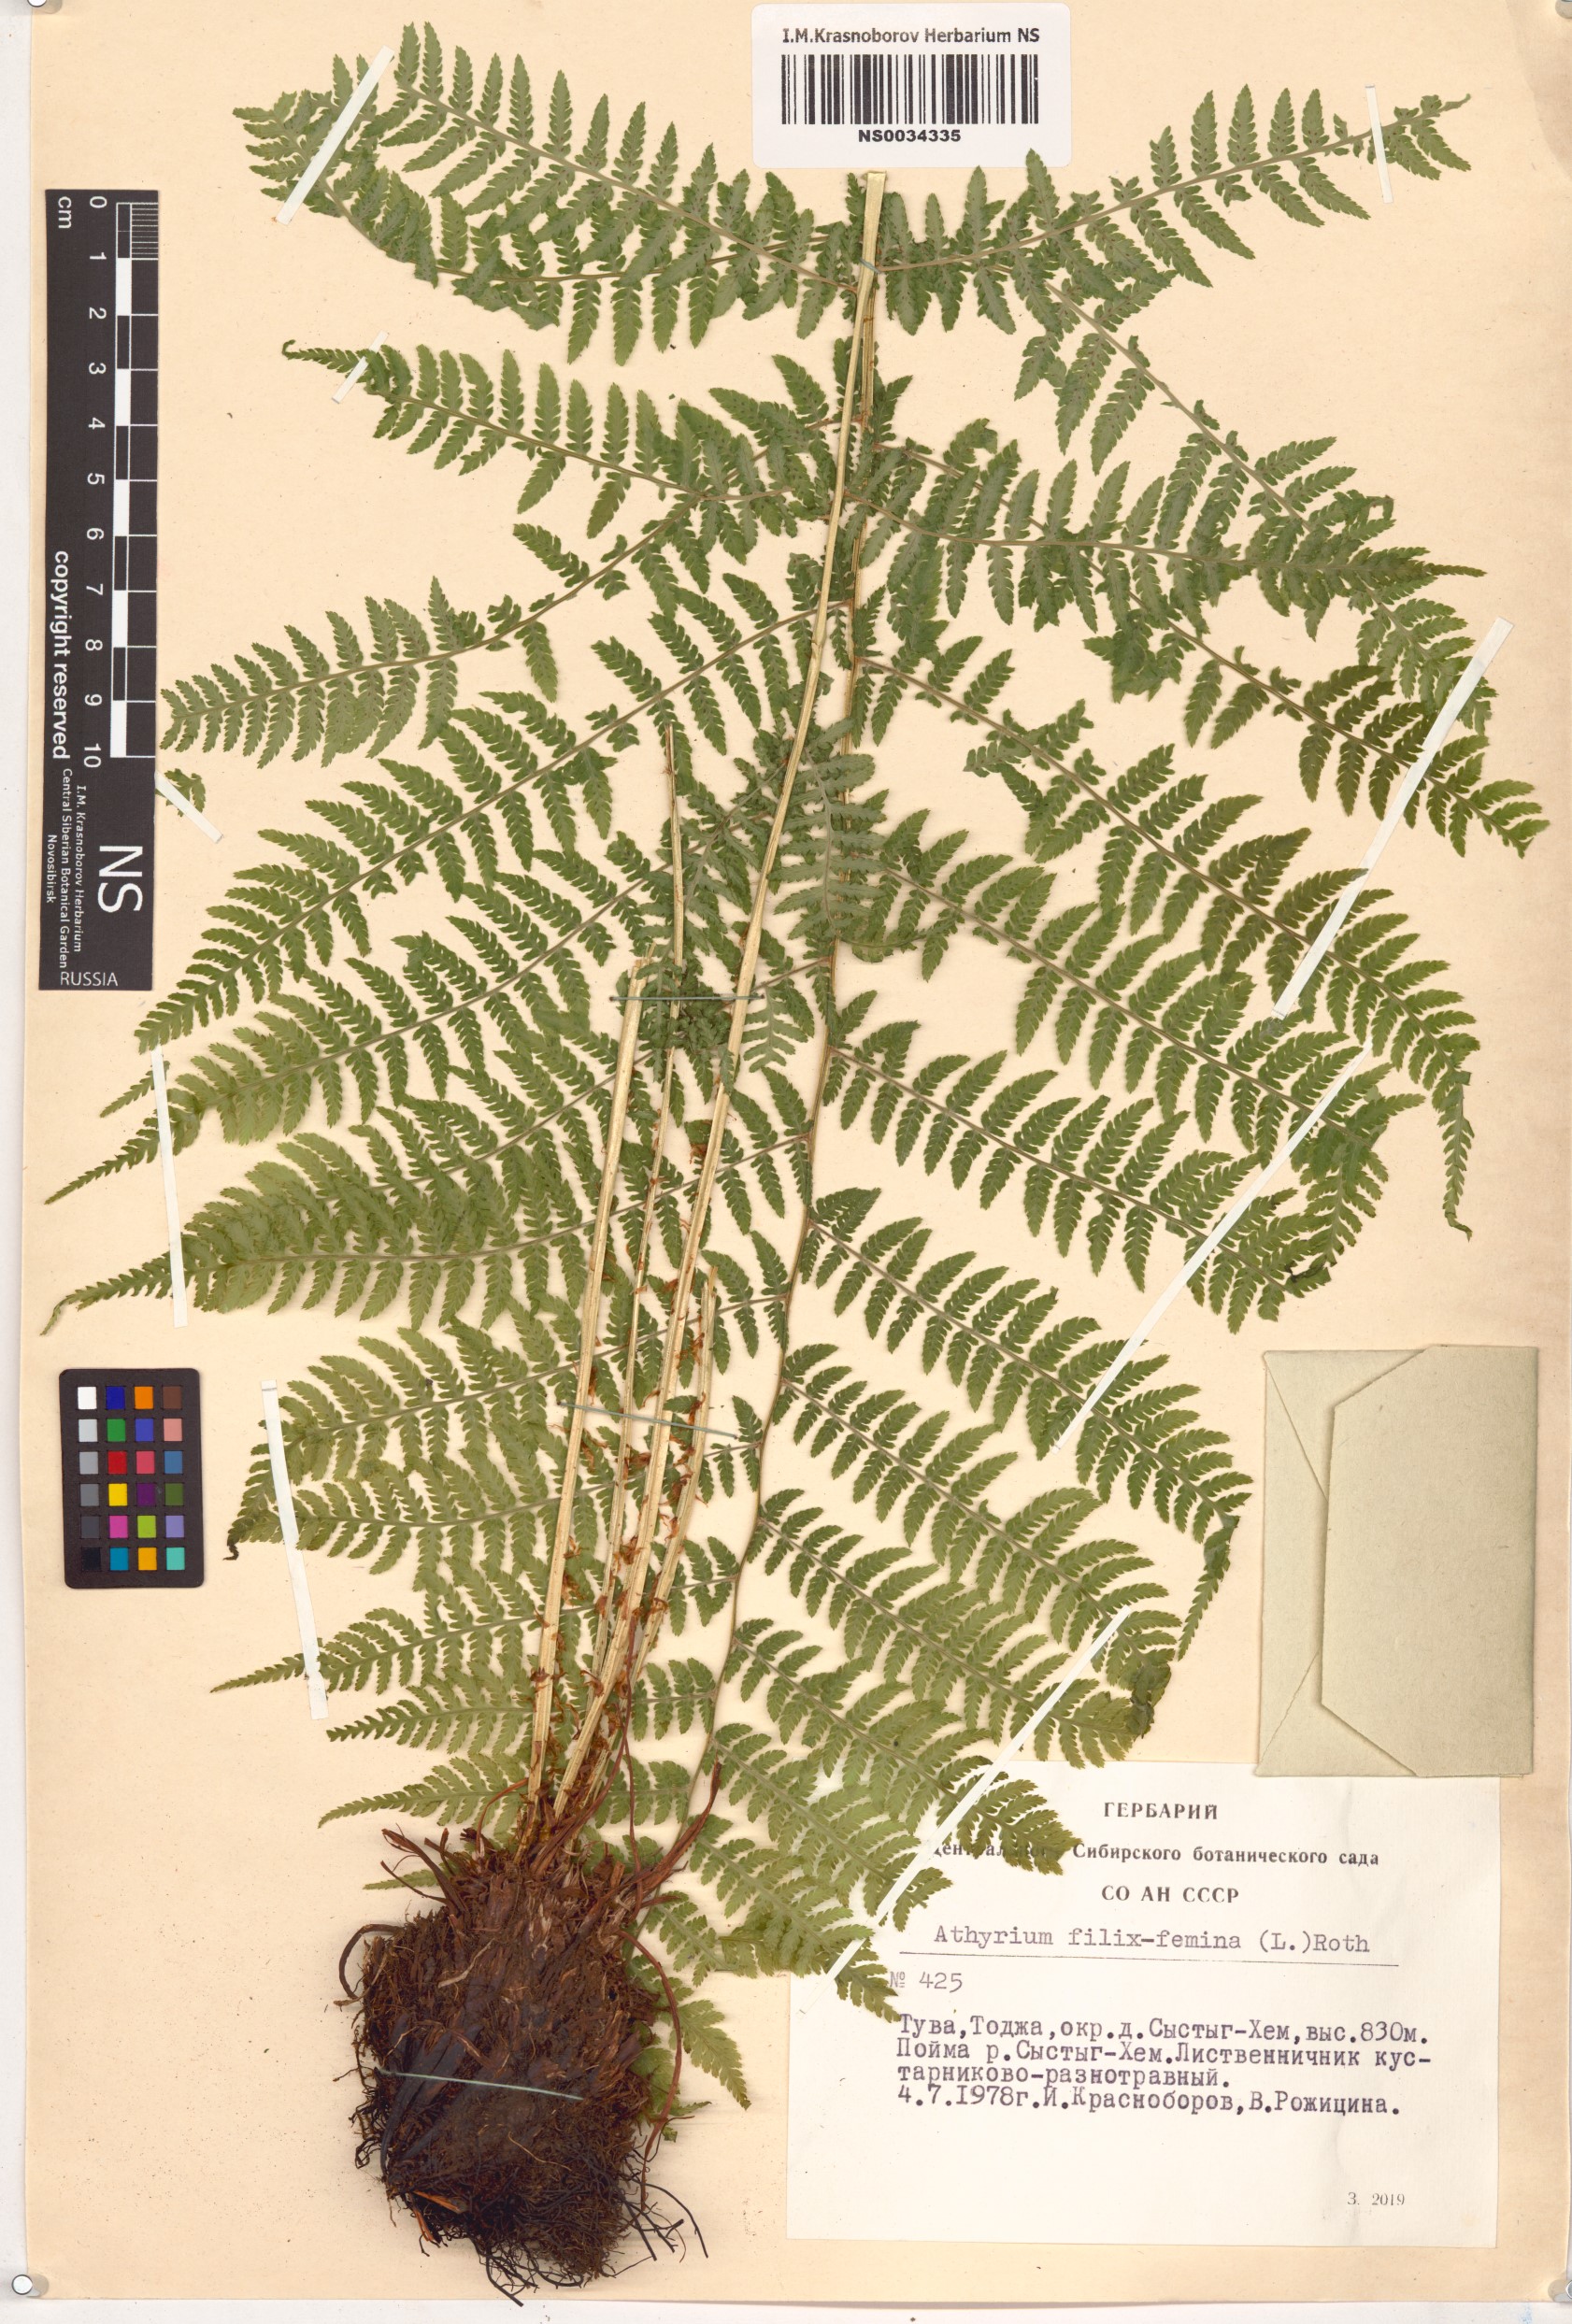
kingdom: Plantae
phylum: Tracheophyta
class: Polypodiopsida
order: Polypodiales
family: Athyriaceae
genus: Athyrium
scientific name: Athyrium filix-femina
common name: Lady fern
